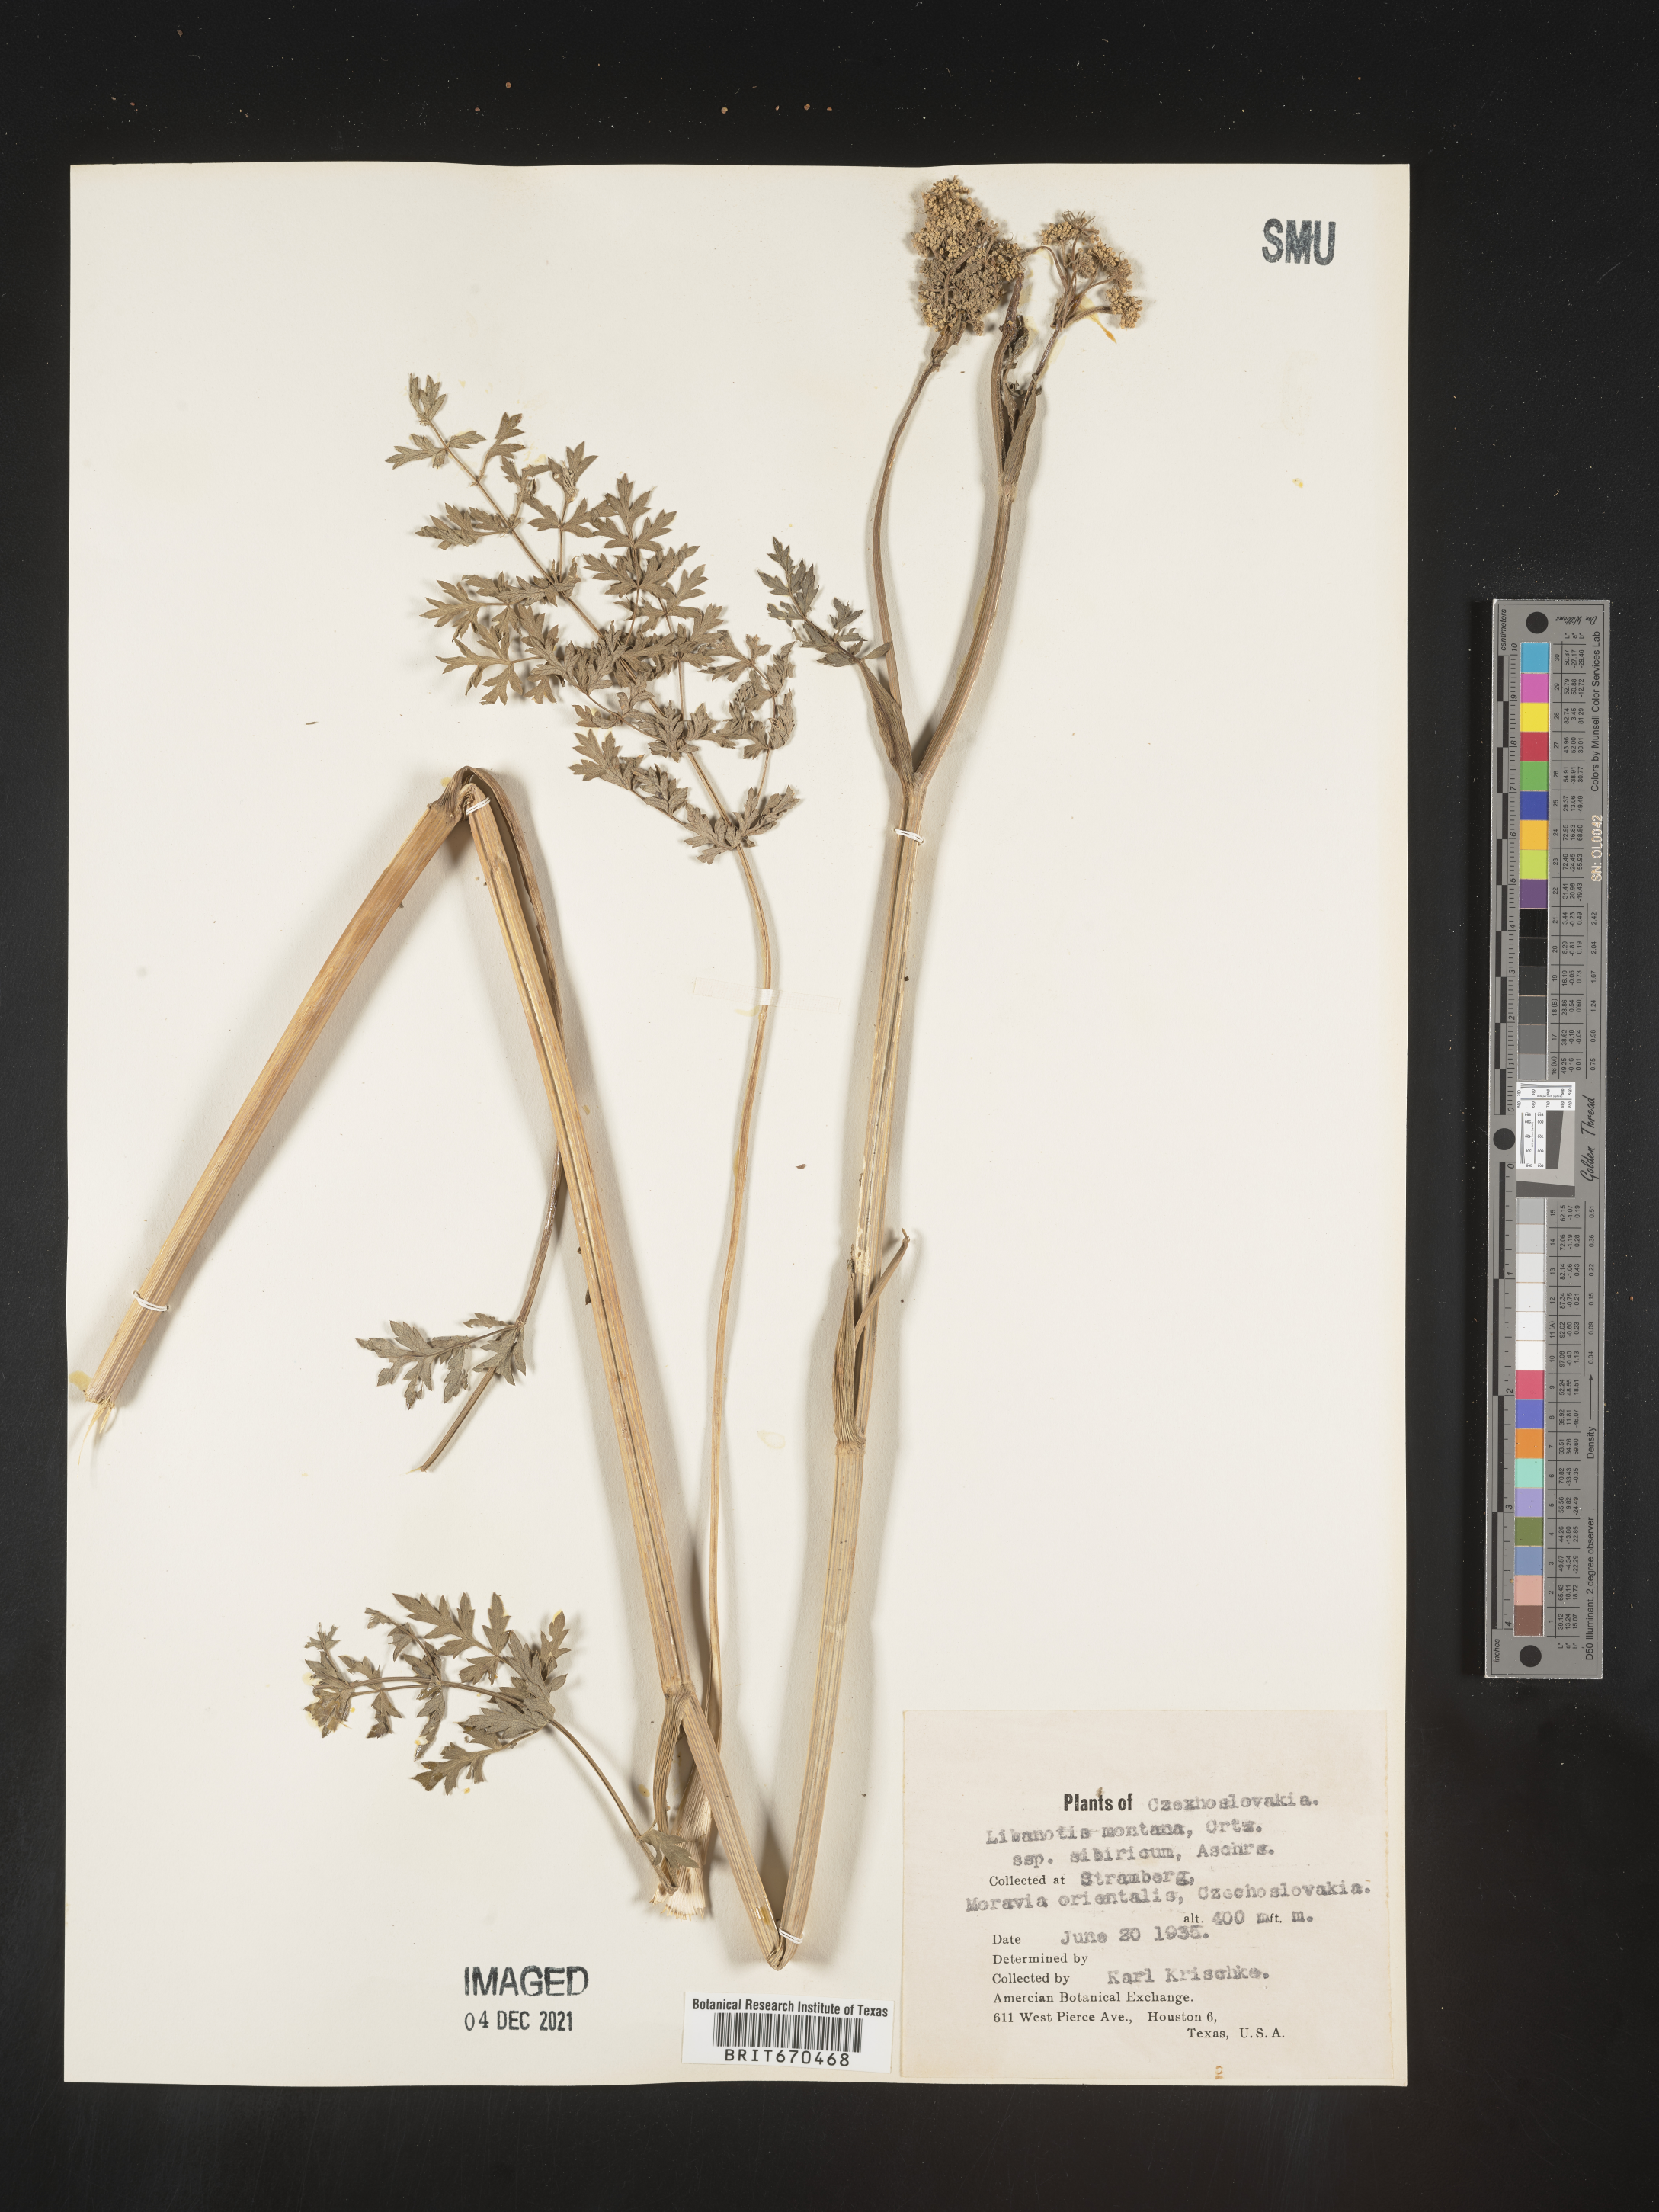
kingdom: Plantae
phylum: Tracheophyta
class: Magnoliopsida
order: Apiales
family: Apiaceae
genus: Libanotis
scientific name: Libanotis
